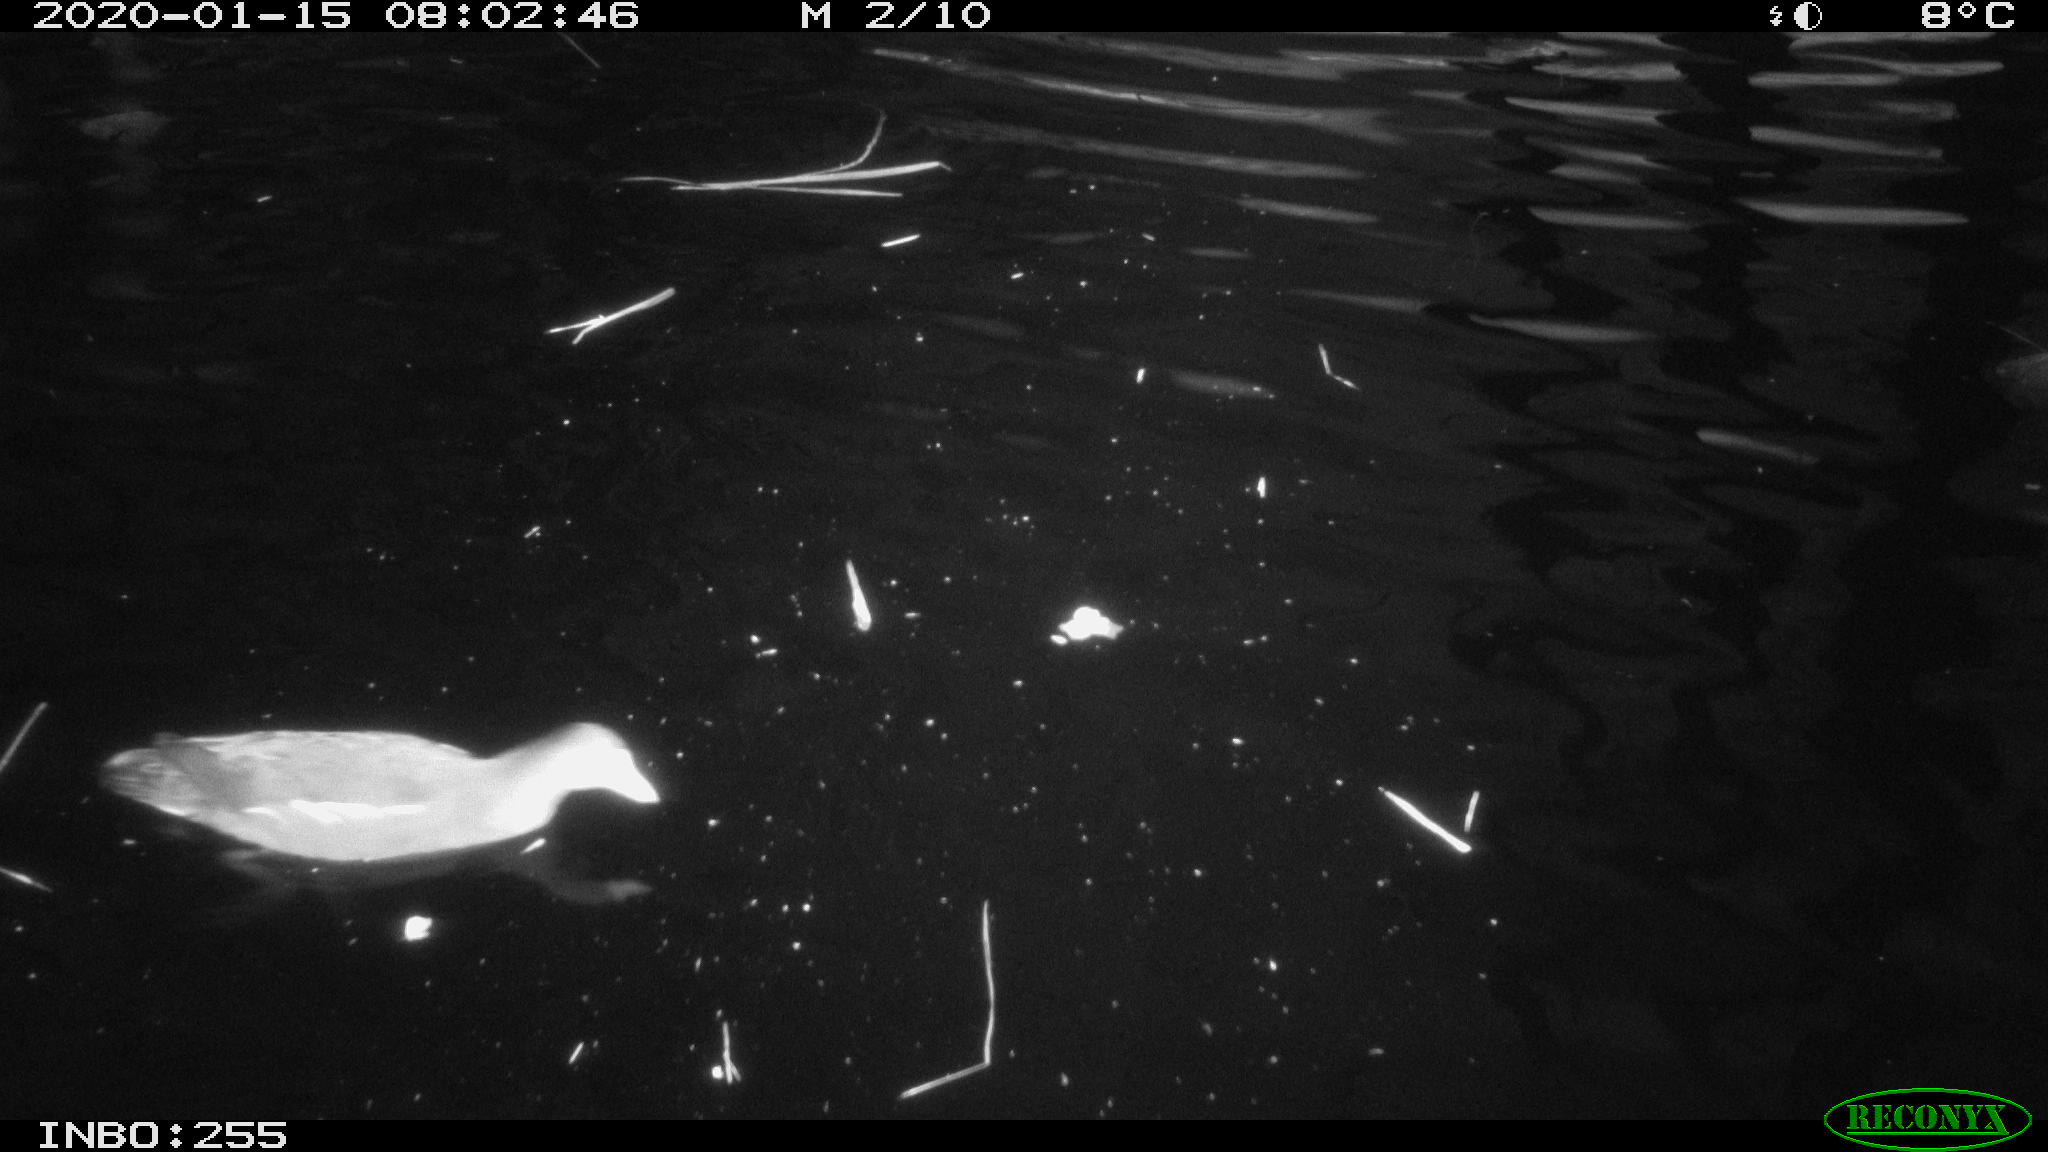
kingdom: Animalia
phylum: Chordata
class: Aves
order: Gruiformes
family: Rallidae
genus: Gallinula
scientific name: Gallinula chloropus
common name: Common moorhen
